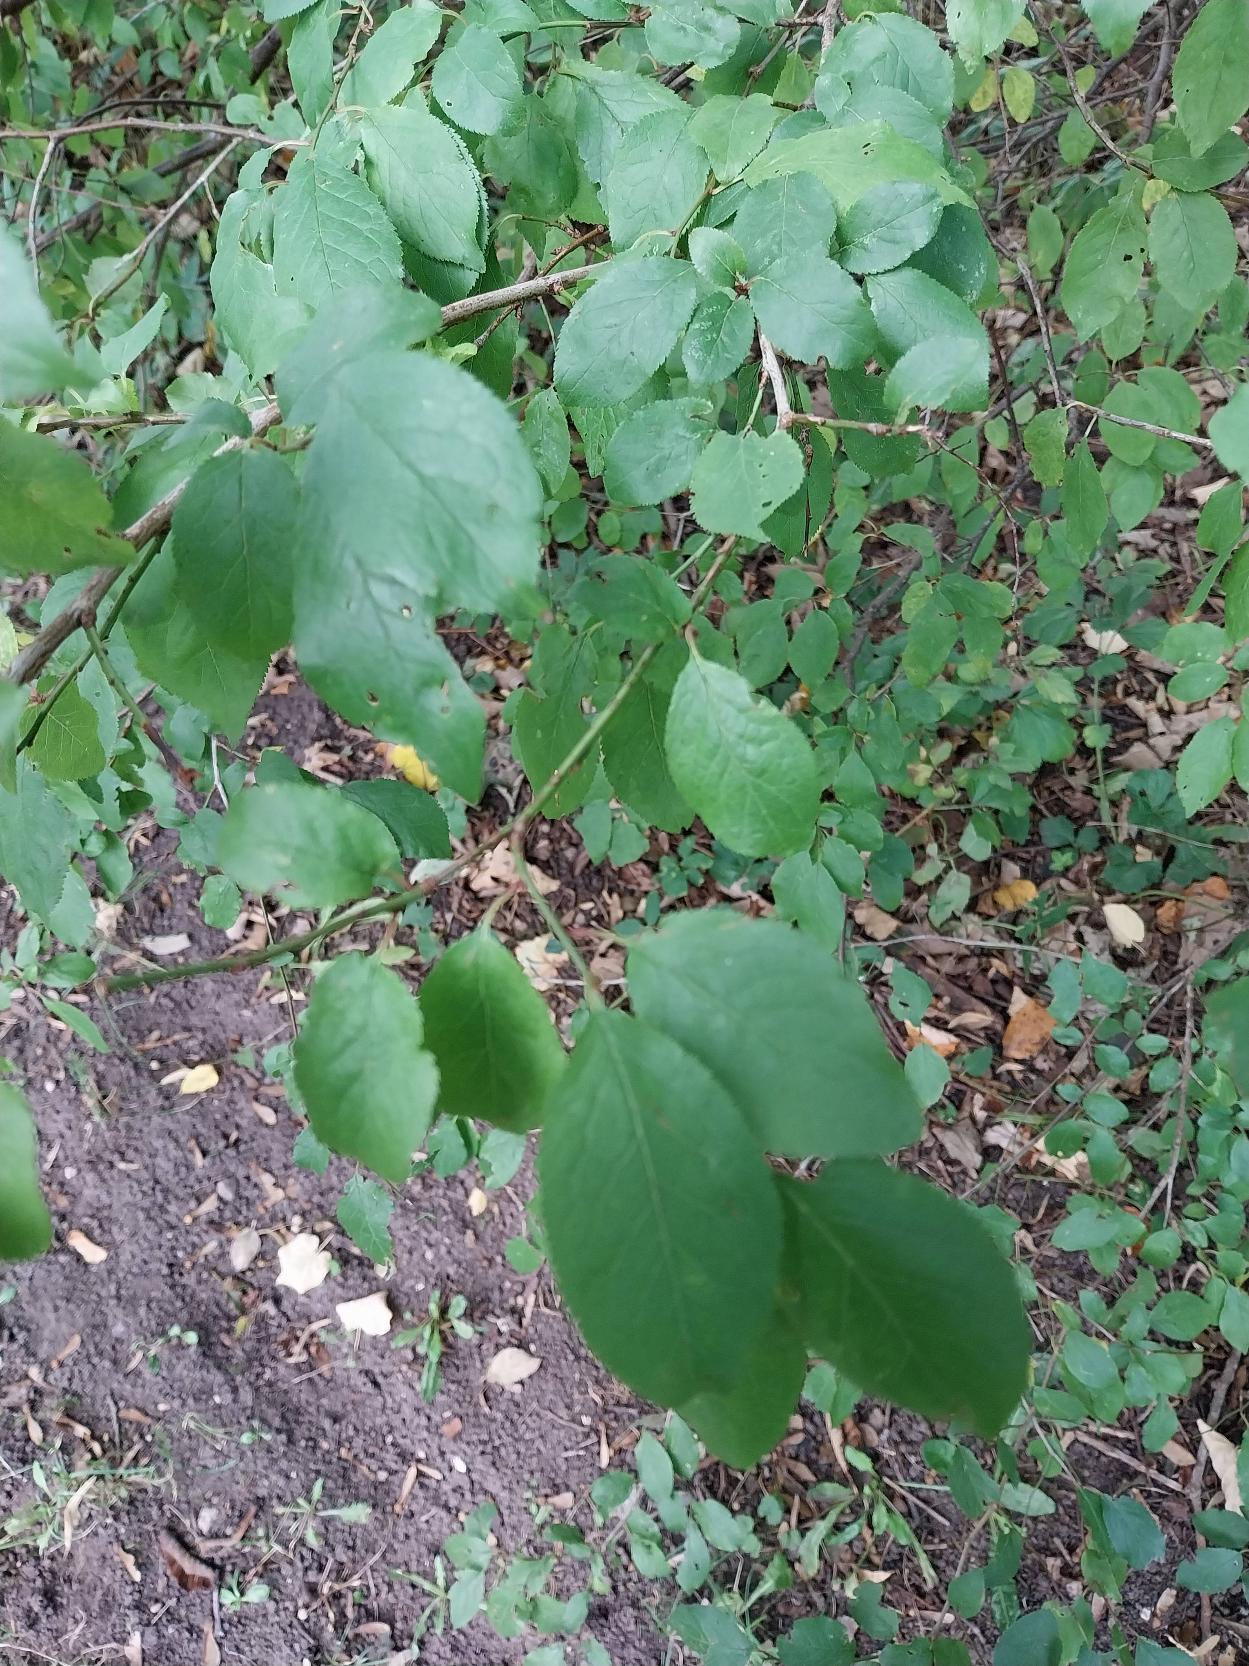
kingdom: Plantae
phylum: Tracheophyta
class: Magnoliopsida
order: Rosales
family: Rosaceae
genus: Prunus
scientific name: Prunus cerasifera
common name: Mirabel
